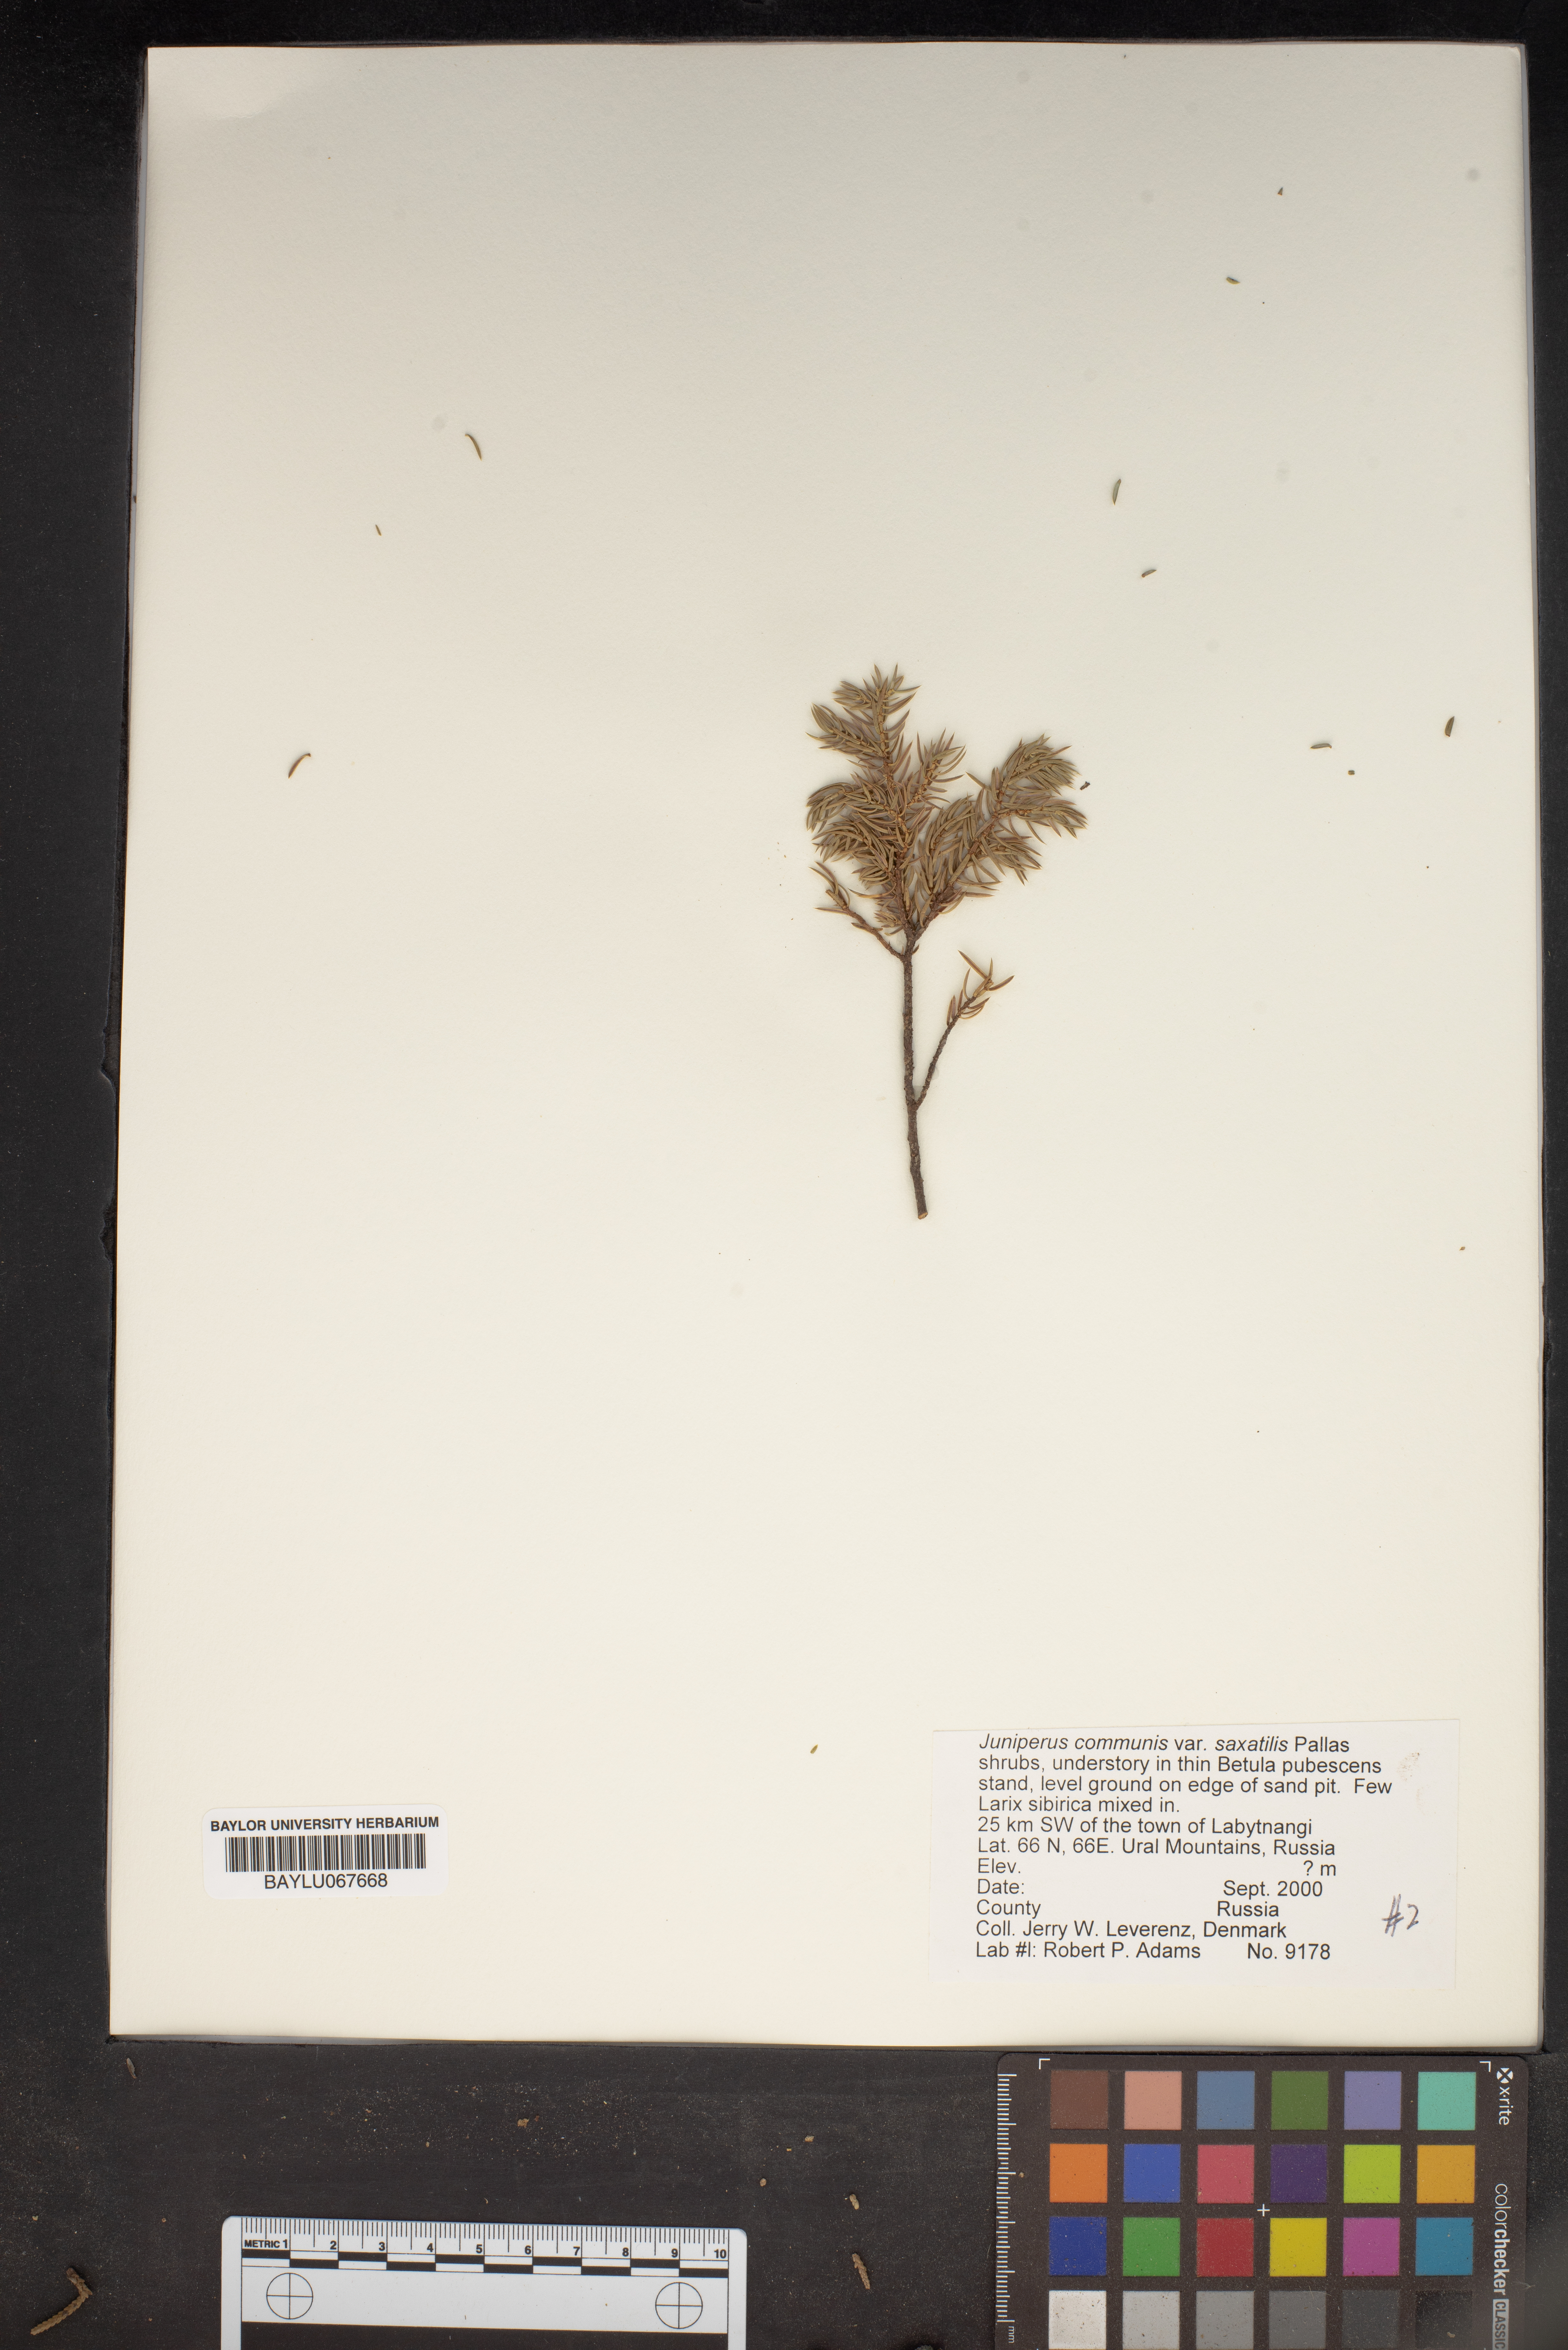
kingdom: Plantae
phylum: Tracheophyta
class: Pinopsida
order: Pinales
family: Cupressaceae
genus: Juniperus
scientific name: Juniperus communis
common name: Common juniper
